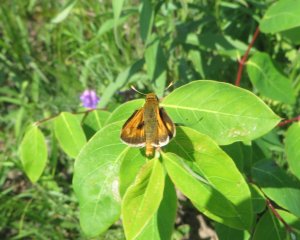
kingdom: Animalia
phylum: Arthropoda
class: Insecta
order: Lepidoptera
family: Hesperiidae
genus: Atalopedes
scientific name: Atalopedes campestris
